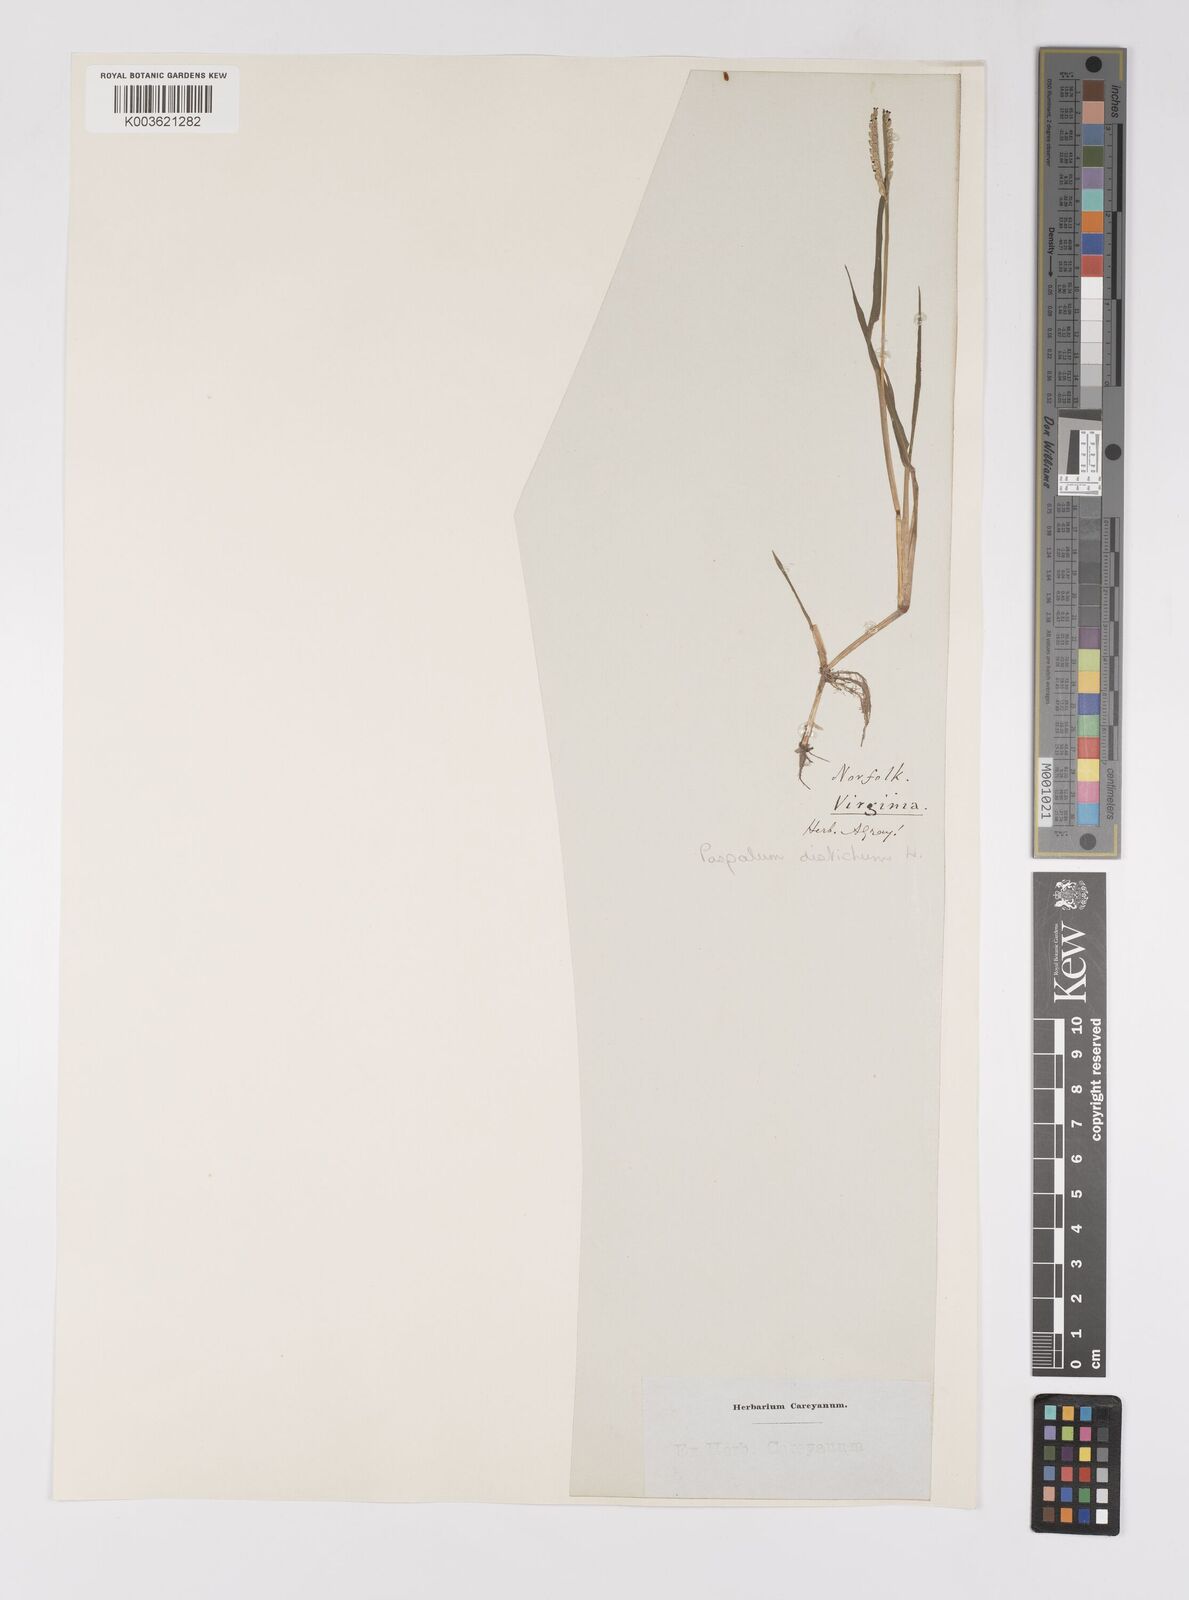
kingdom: Plantae
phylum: Tracheophyta
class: Liliopsida
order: Poales
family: Poaceae
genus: Paspalum
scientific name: Paspalum distichum
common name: Knotgrass
